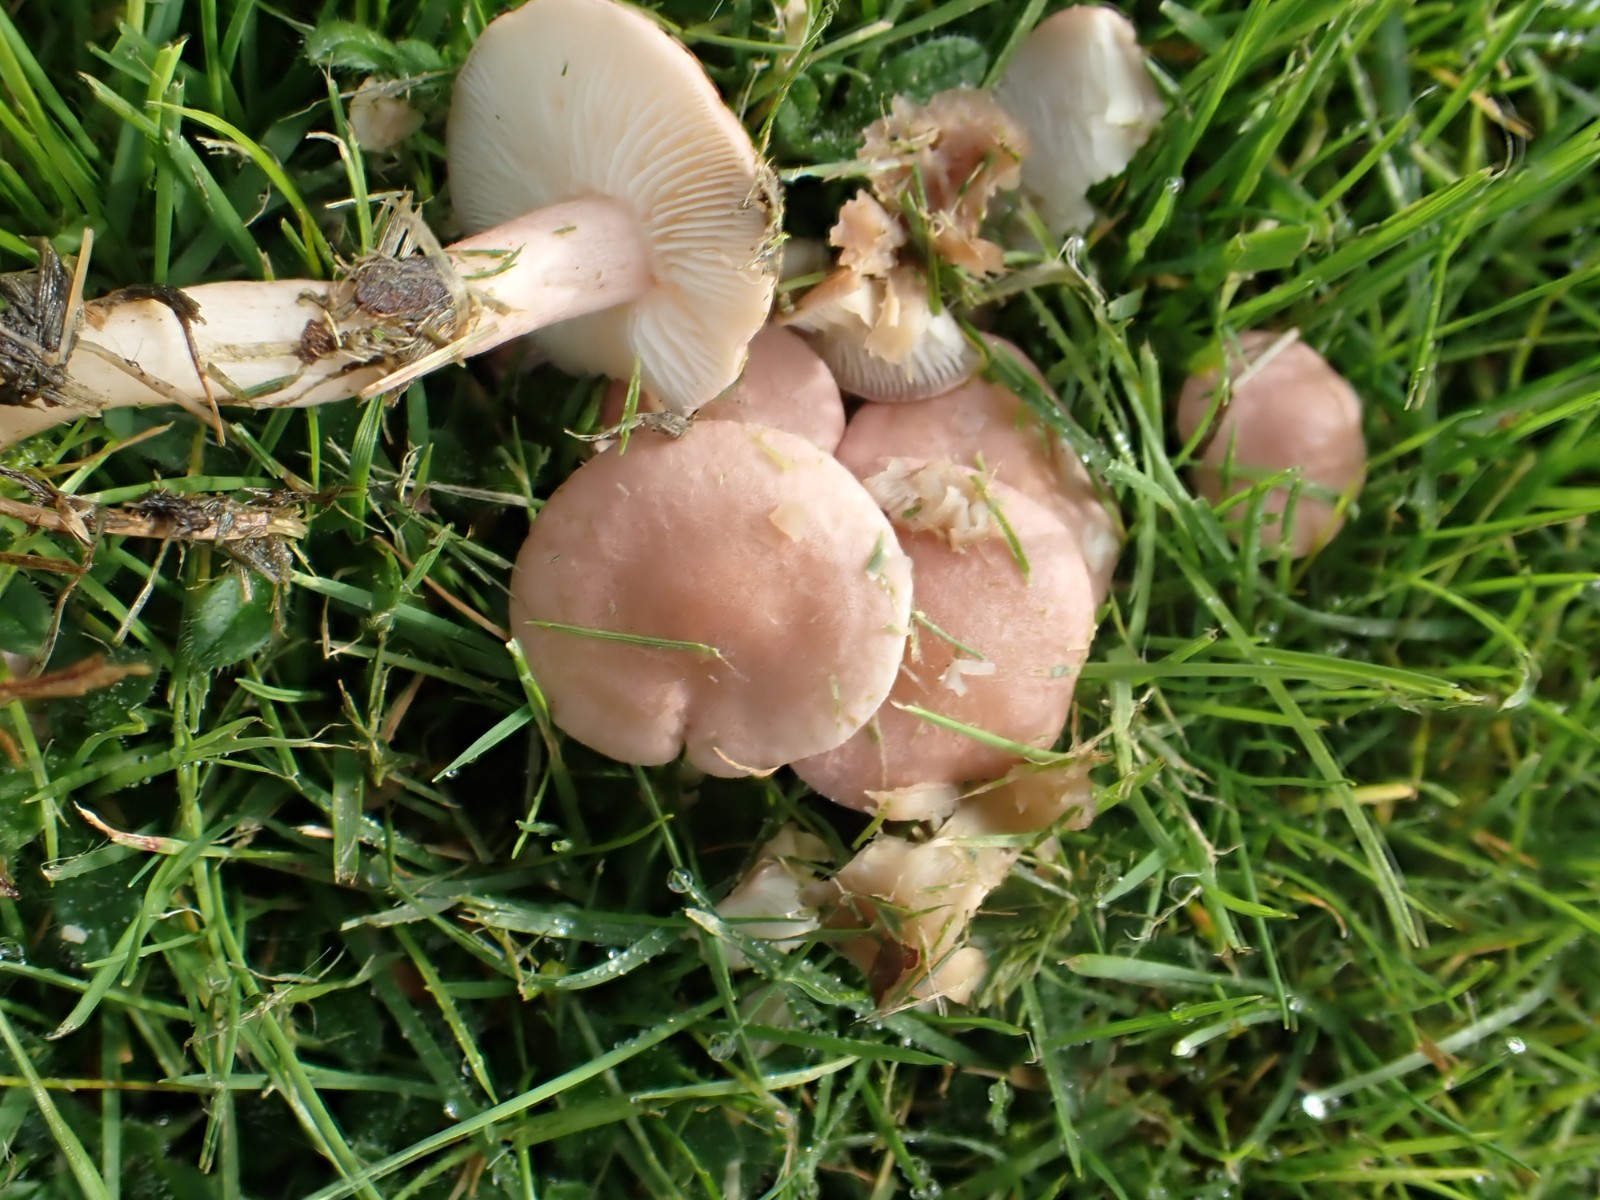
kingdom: Fungi
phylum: Basidiomycota
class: Agaricomycetes
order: Agaricales
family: Lyophyllaceae
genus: Calocybe
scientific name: Calocybe carnea
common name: rosa fagerhat
